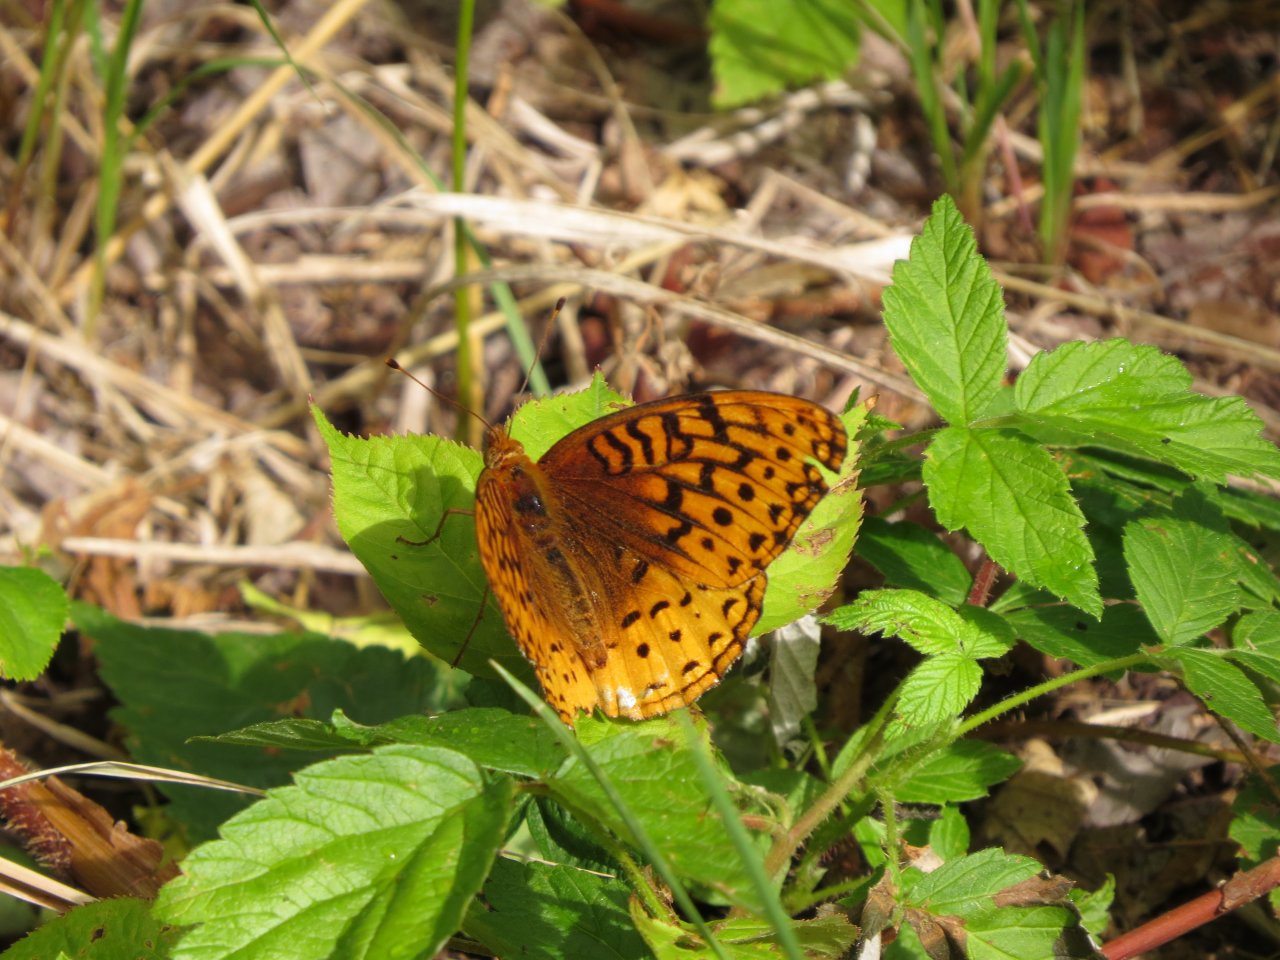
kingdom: Animalia
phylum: Arthropoda
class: Insecta
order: Lepidoptera
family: Nymphalidae
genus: Speyeria
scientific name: Speyeria cybele
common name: Great Spangled Fritillary
